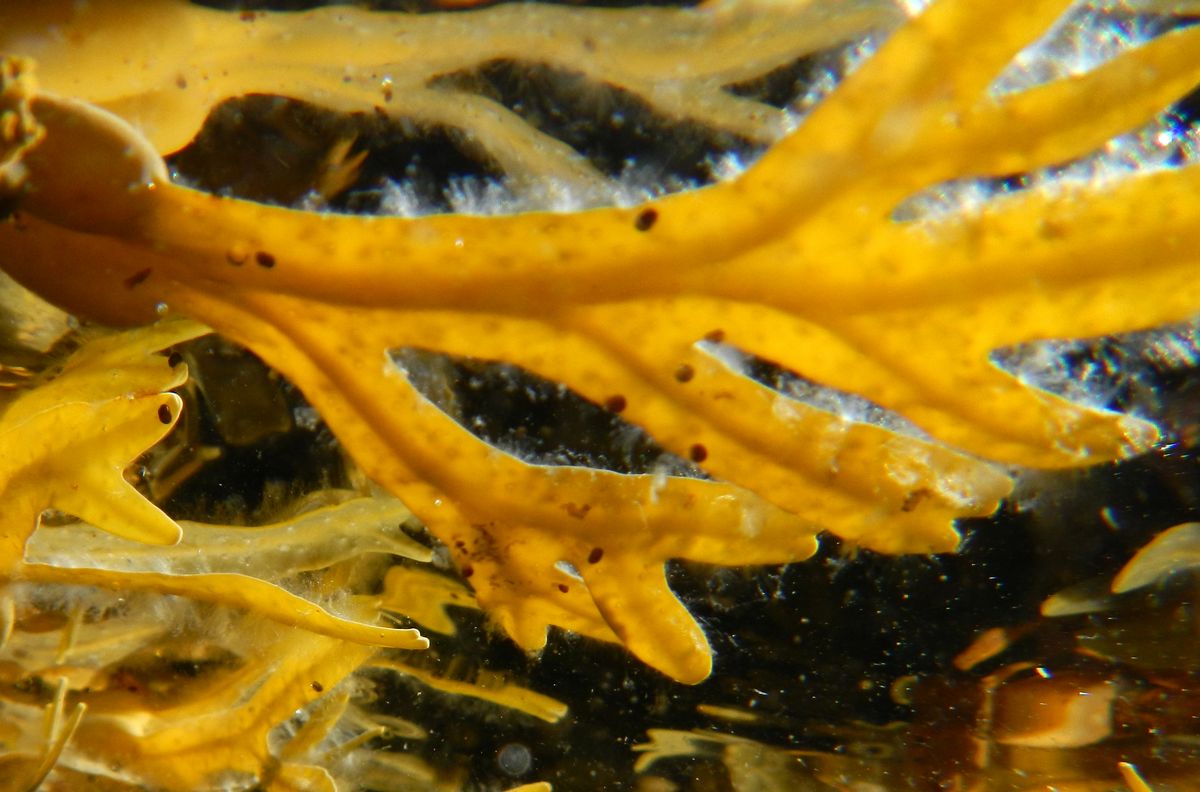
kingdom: Chromista
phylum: Ochrophyta
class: Phaeophyceae
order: Fucales
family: Fucaceae
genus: Fucus
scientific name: Fucus serratus
